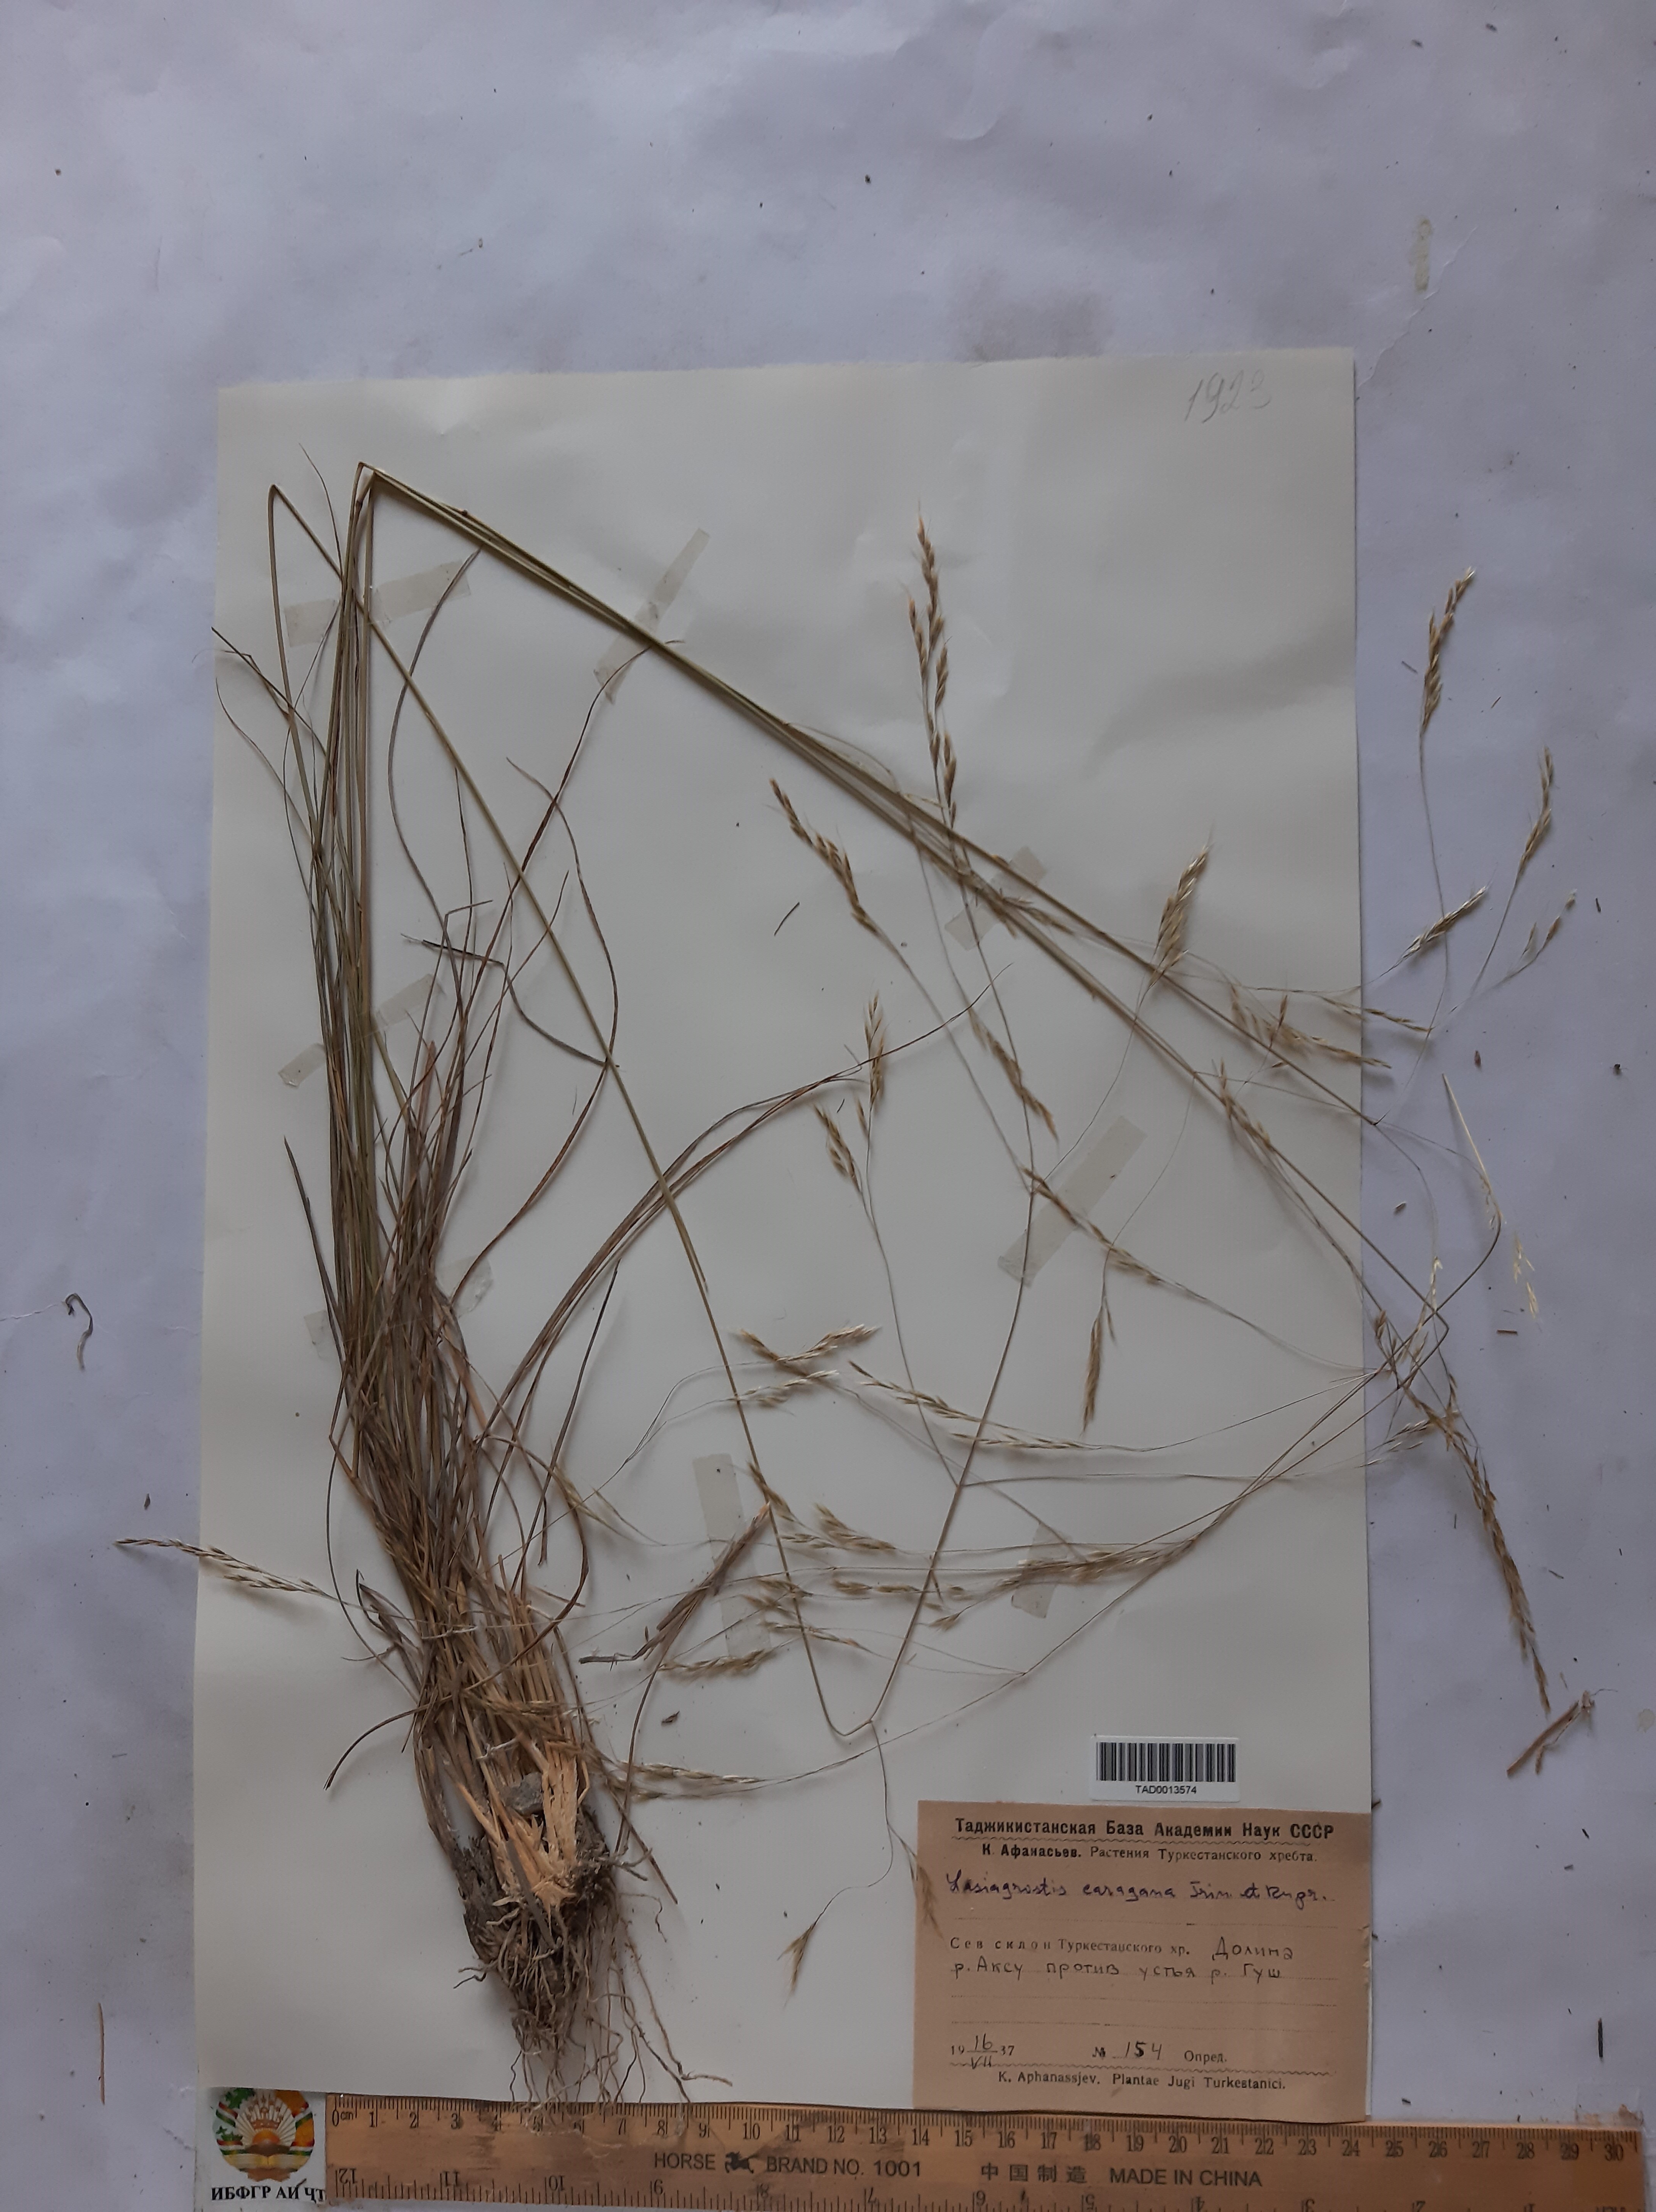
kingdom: Plantae
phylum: Tracheophyta
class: Liliopsida
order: Poales
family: Poaceae
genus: Stipa
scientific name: Stipa conferta
